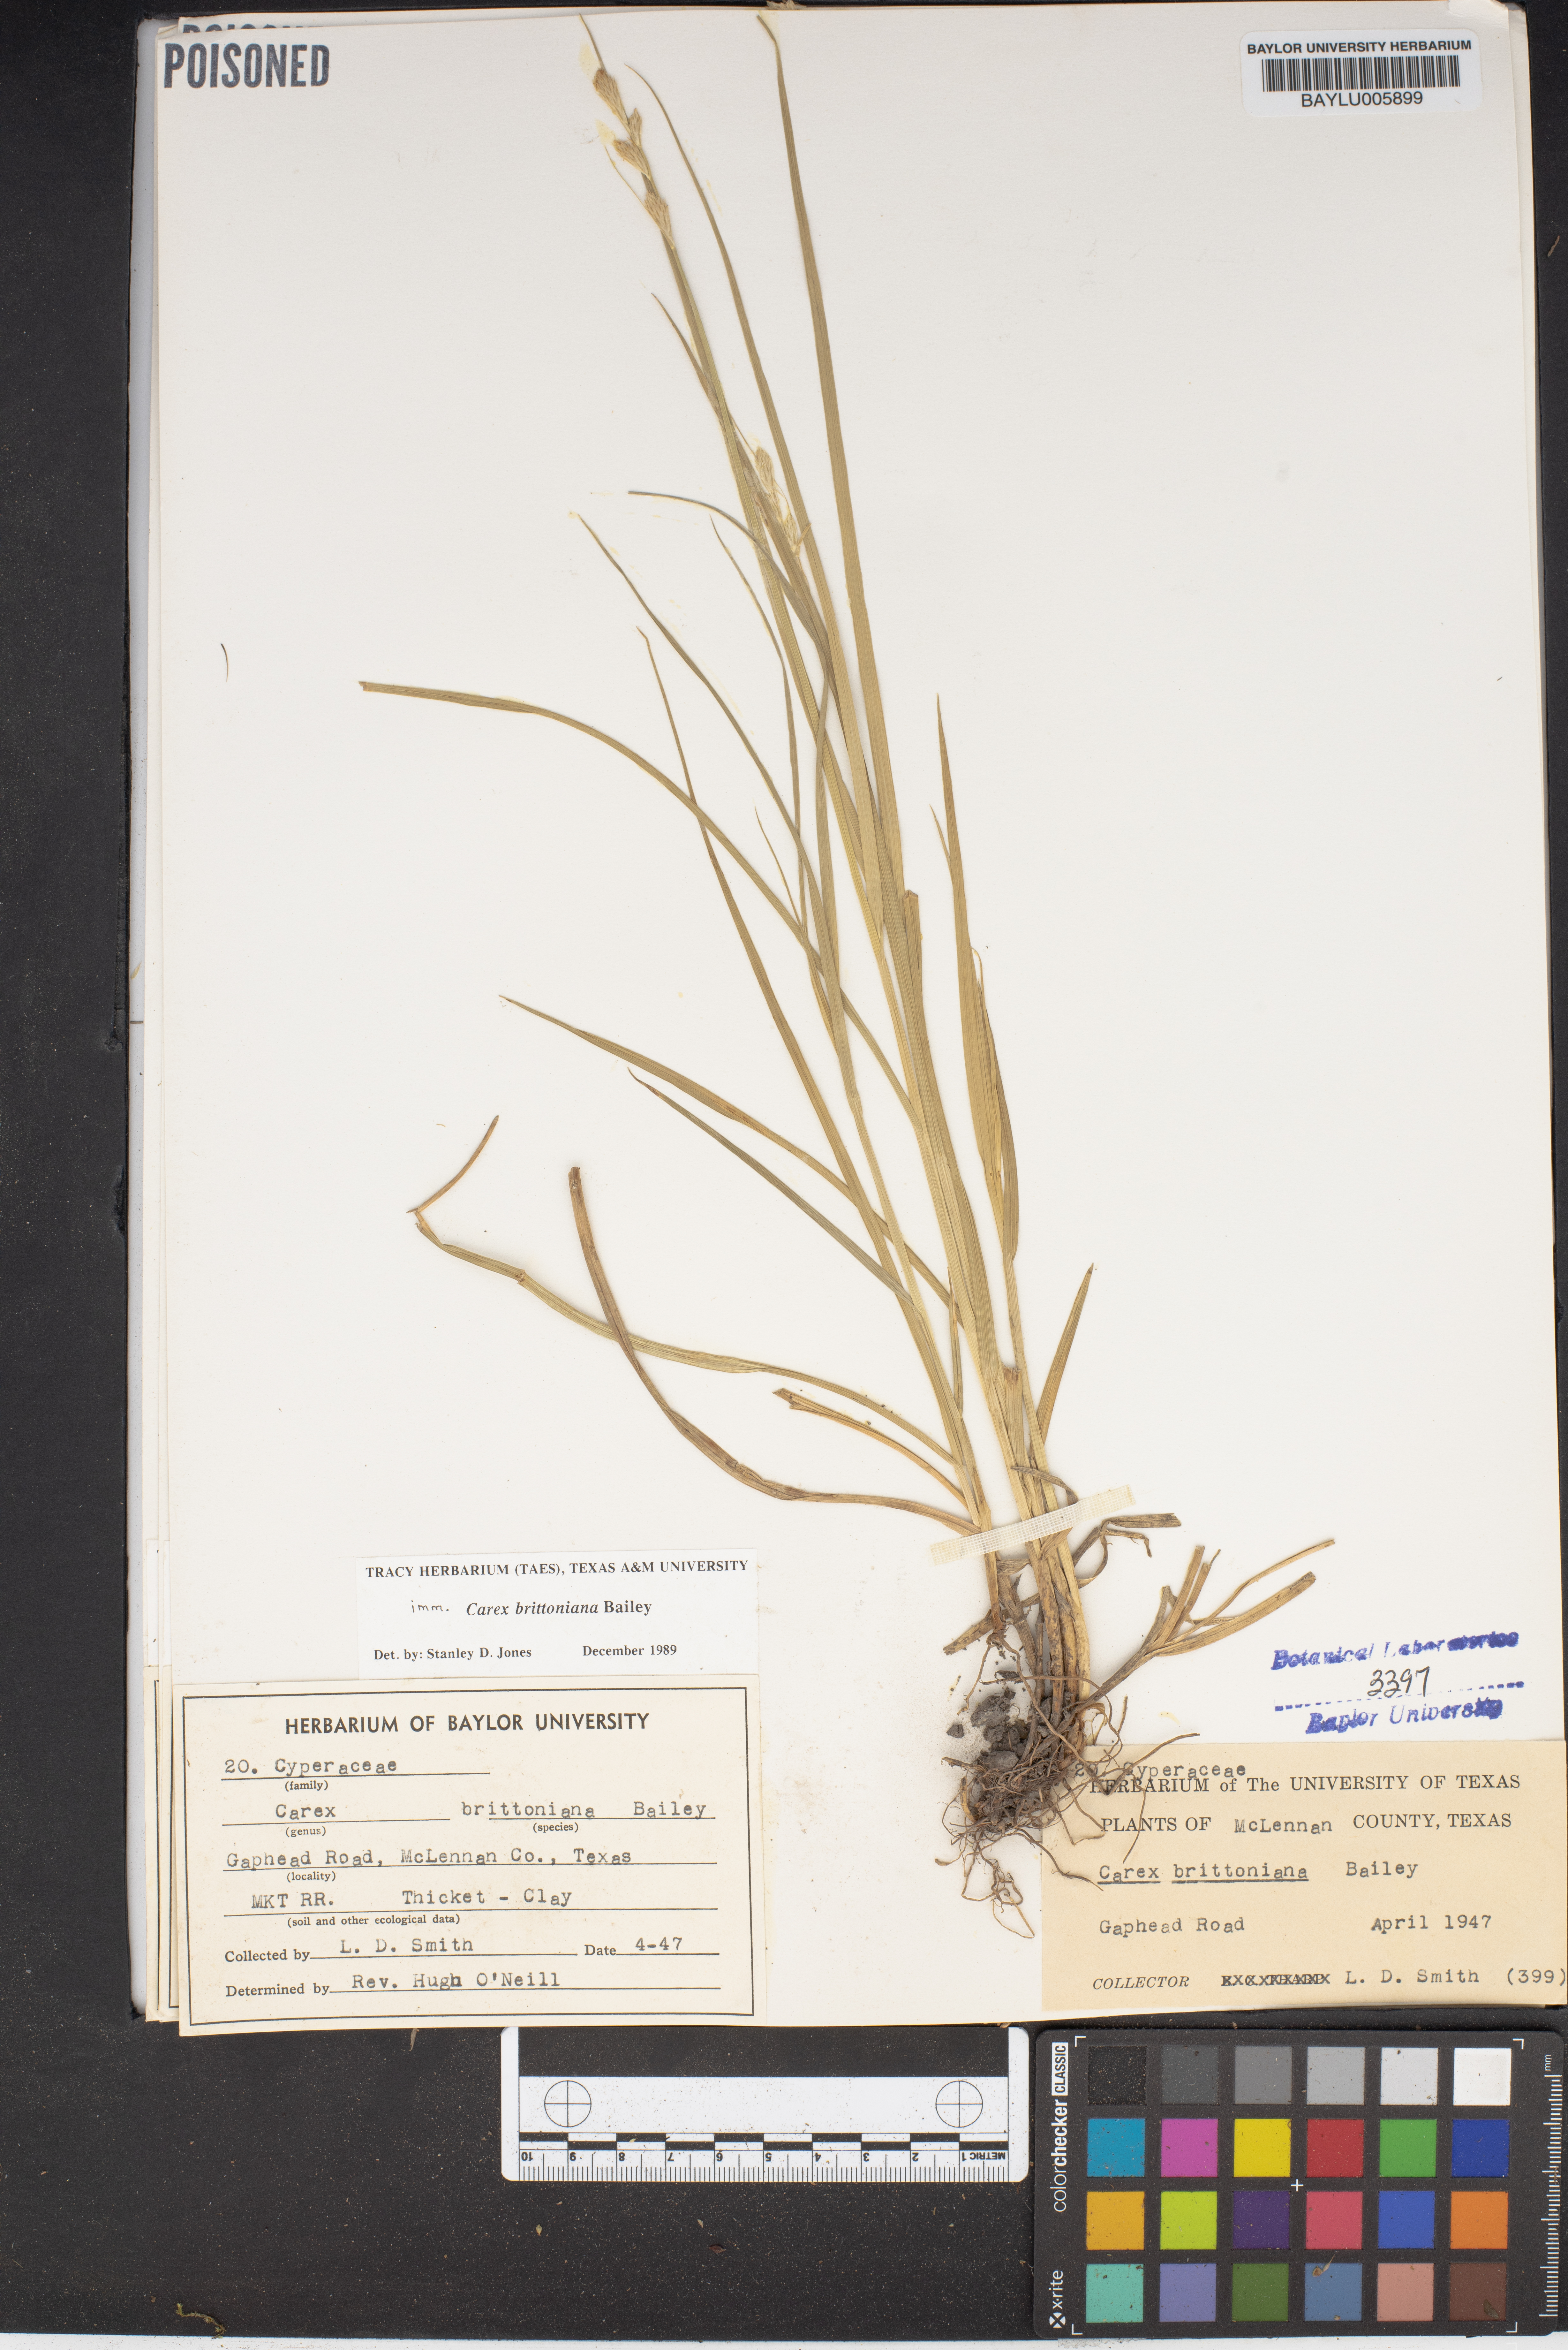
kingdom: Plantae
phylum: Tracheophyta
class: Liliopsida
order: Poales
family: Cyperaceae
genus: Carex
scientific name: Carex tetrastachya
